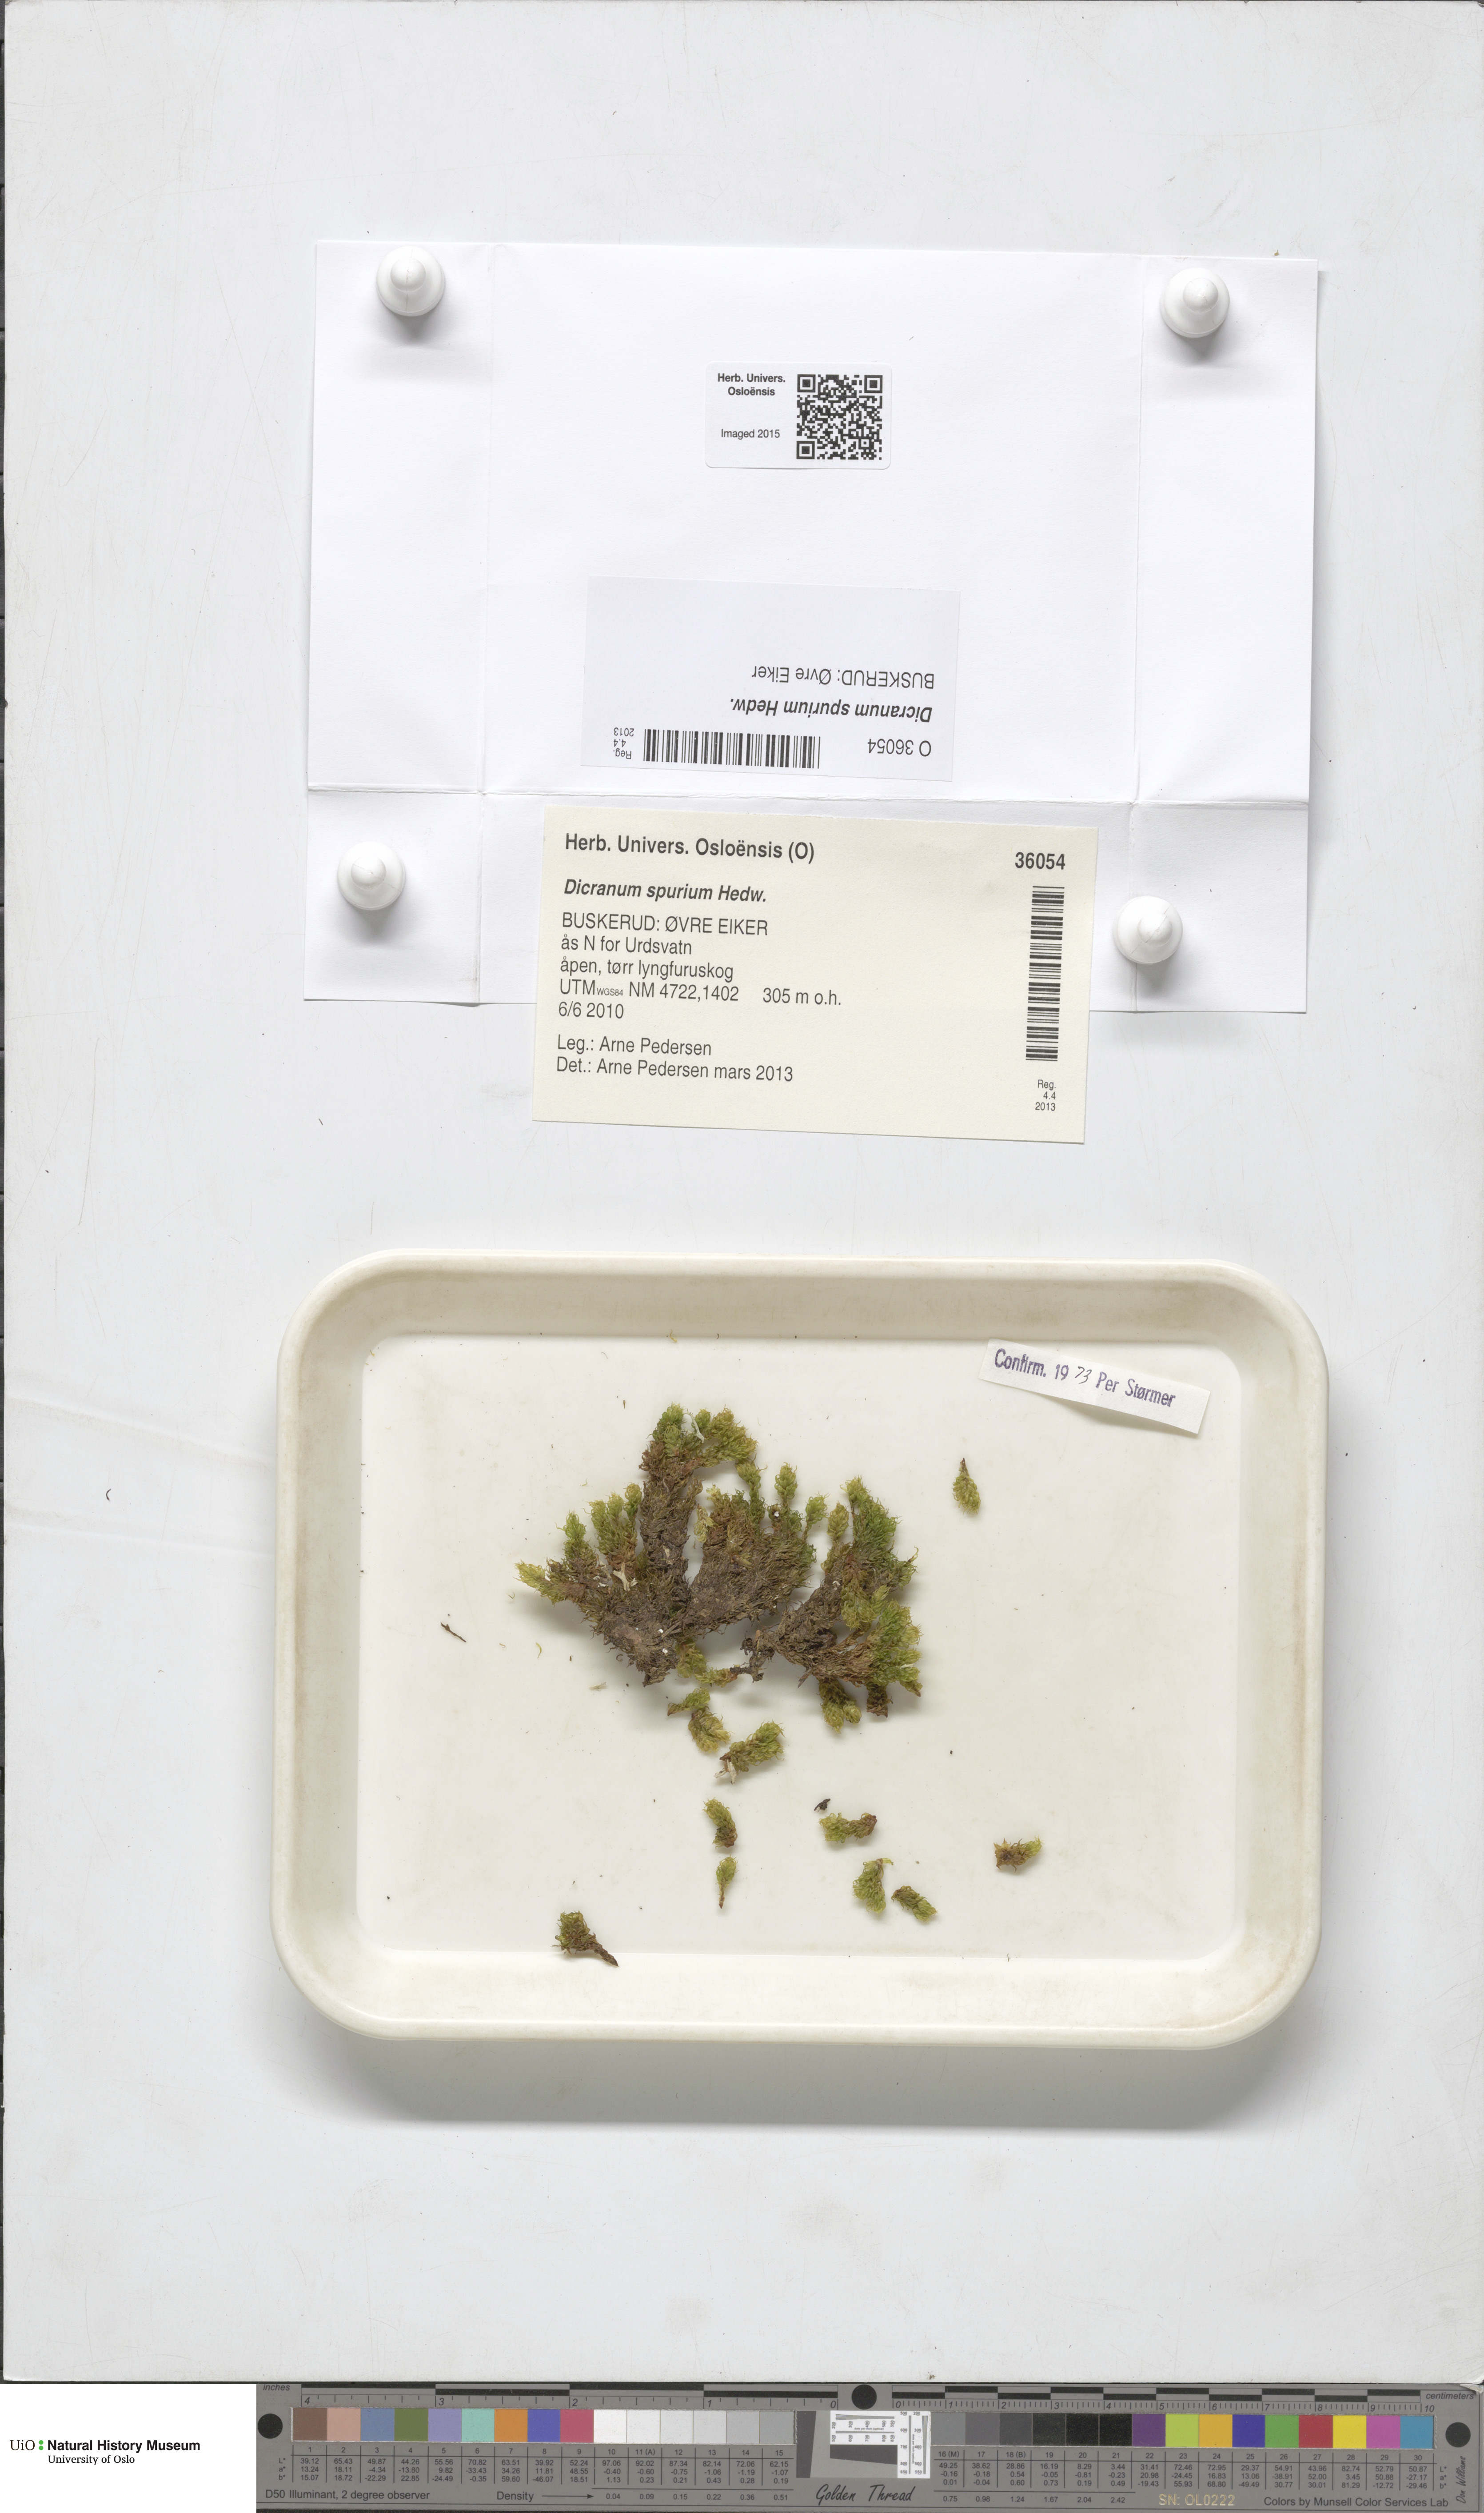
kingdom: Plantae
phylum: Bryophyta
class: Bryopsida
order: Dicranales
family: Dicranaceae
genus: Dicranum
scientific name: Dicranum spurium
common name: Spurred broom moss
